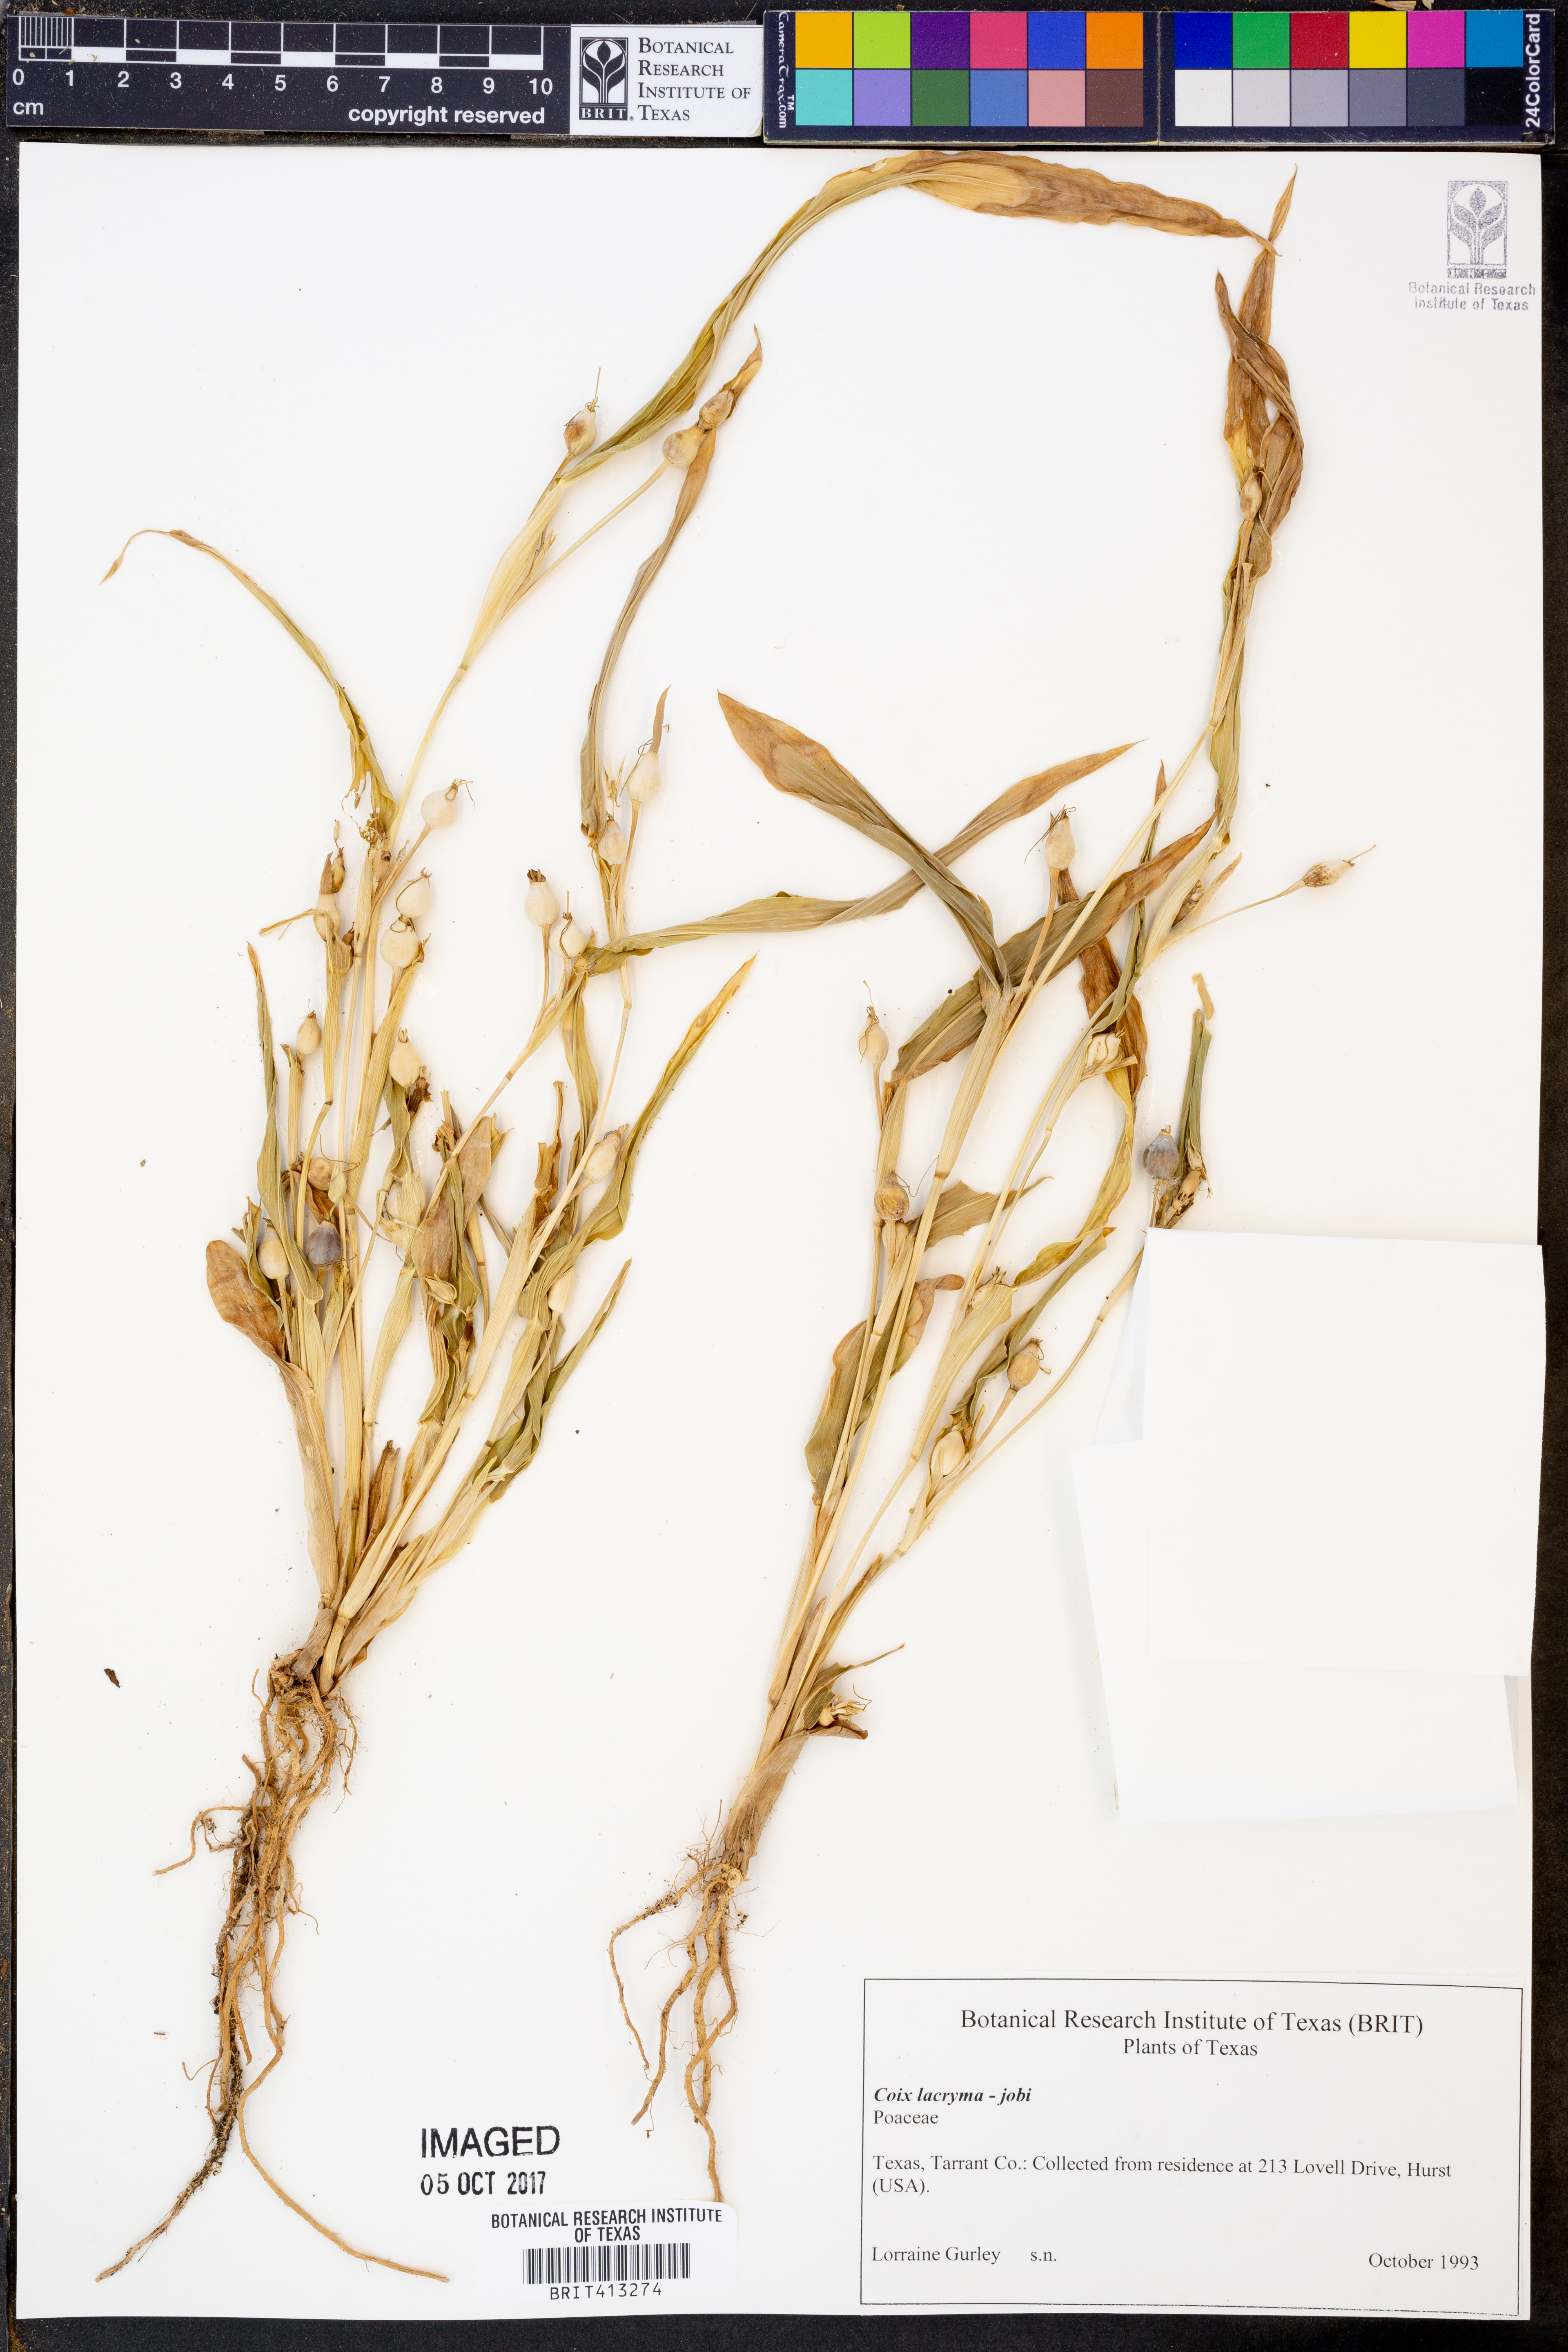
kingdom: Plantae
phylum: Tracheophyta
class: Liliopsida
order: Poales
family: Poaceae
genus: Coix
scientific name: Coix lacryma-jobi
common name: Job's tears
